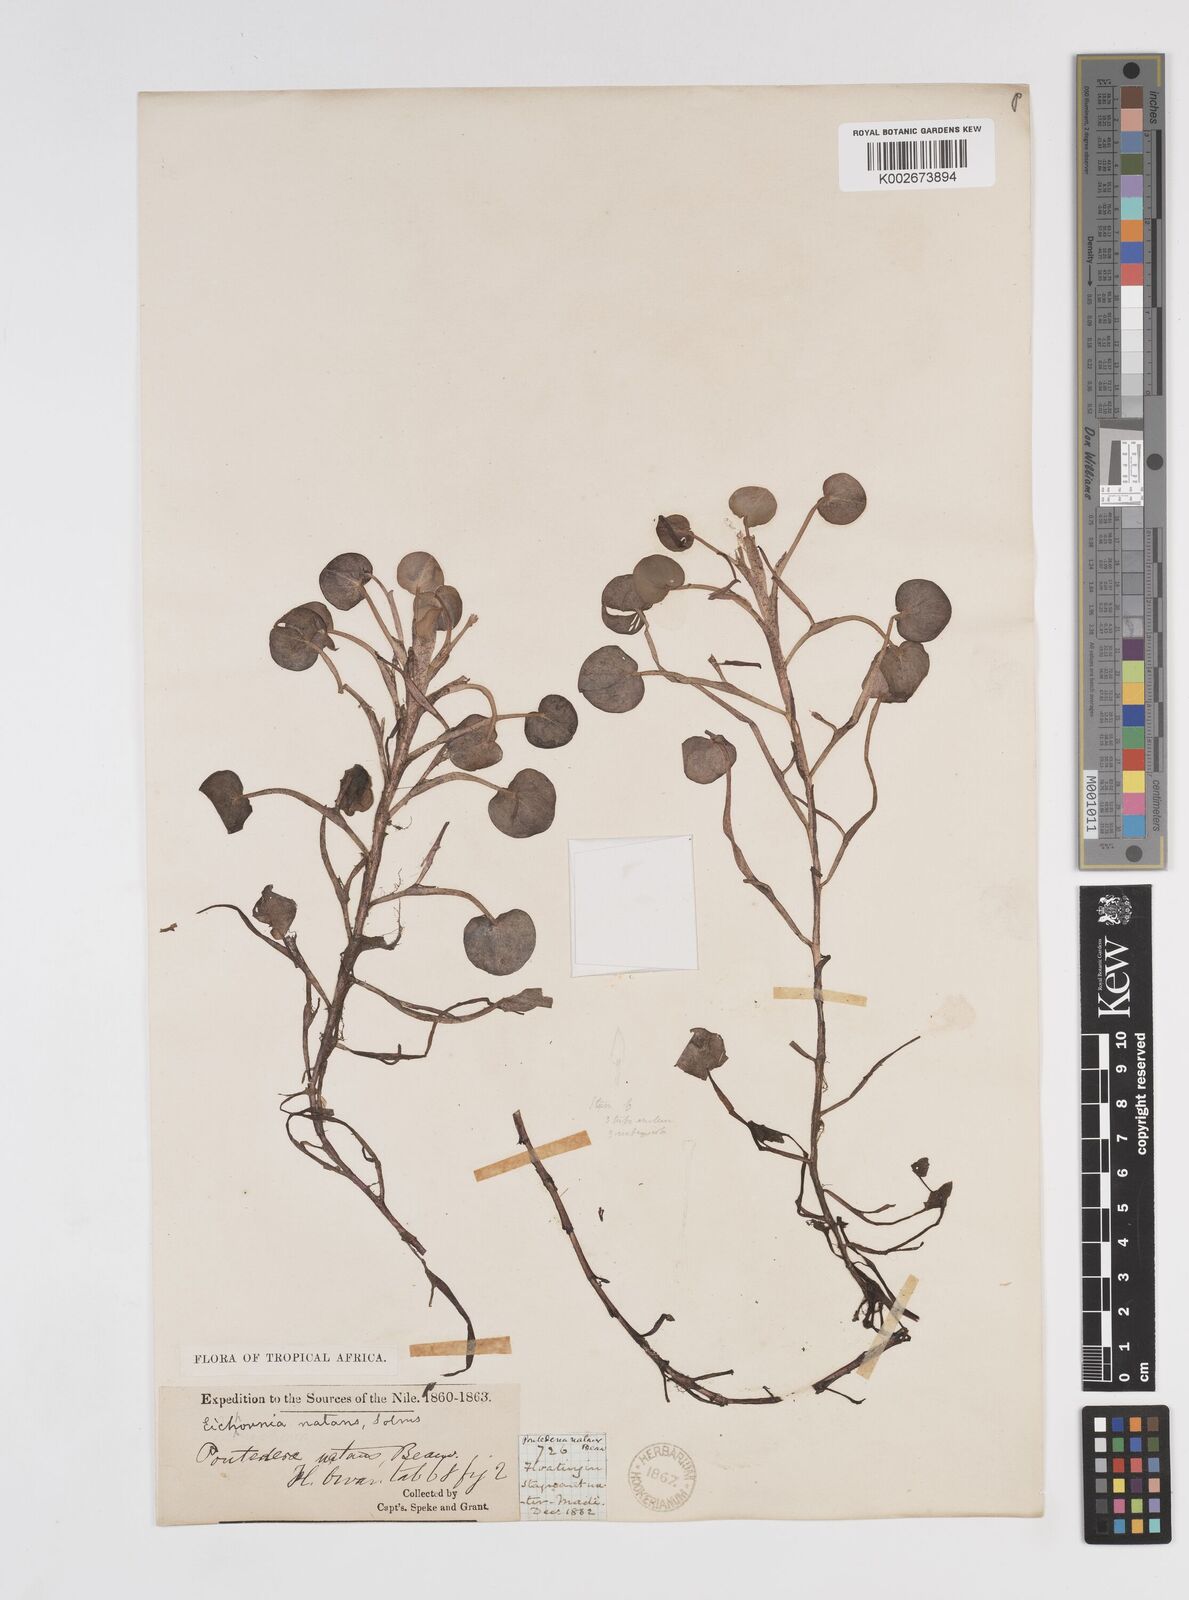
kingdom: Plantae
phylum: Tracheophyta
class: Liliopsida
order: Commelinales
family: Pontederiaceae
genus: Pontederia
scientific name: Pontederia diversifolia
